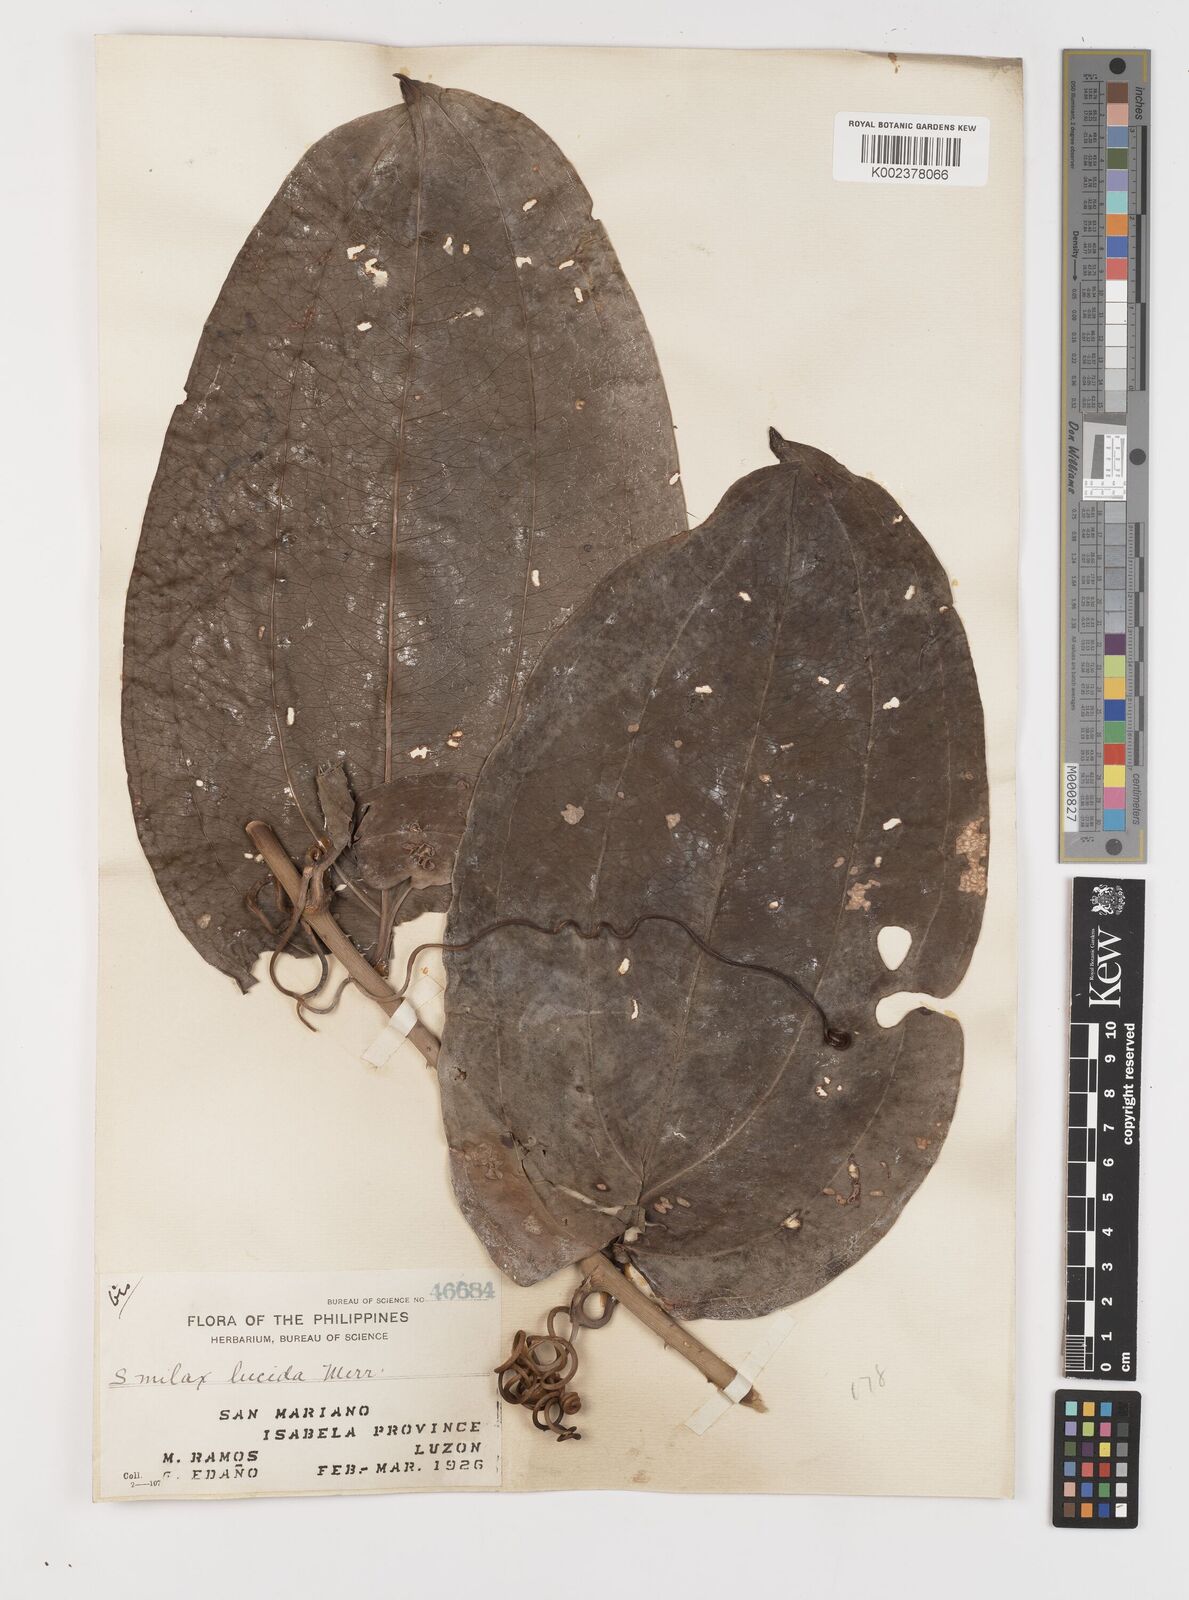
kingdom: Plantae
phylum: Tracheophyta
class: Liliopsida
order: Liliales
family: Smilacaceae
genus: Smilax
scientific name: Smilax lucida
